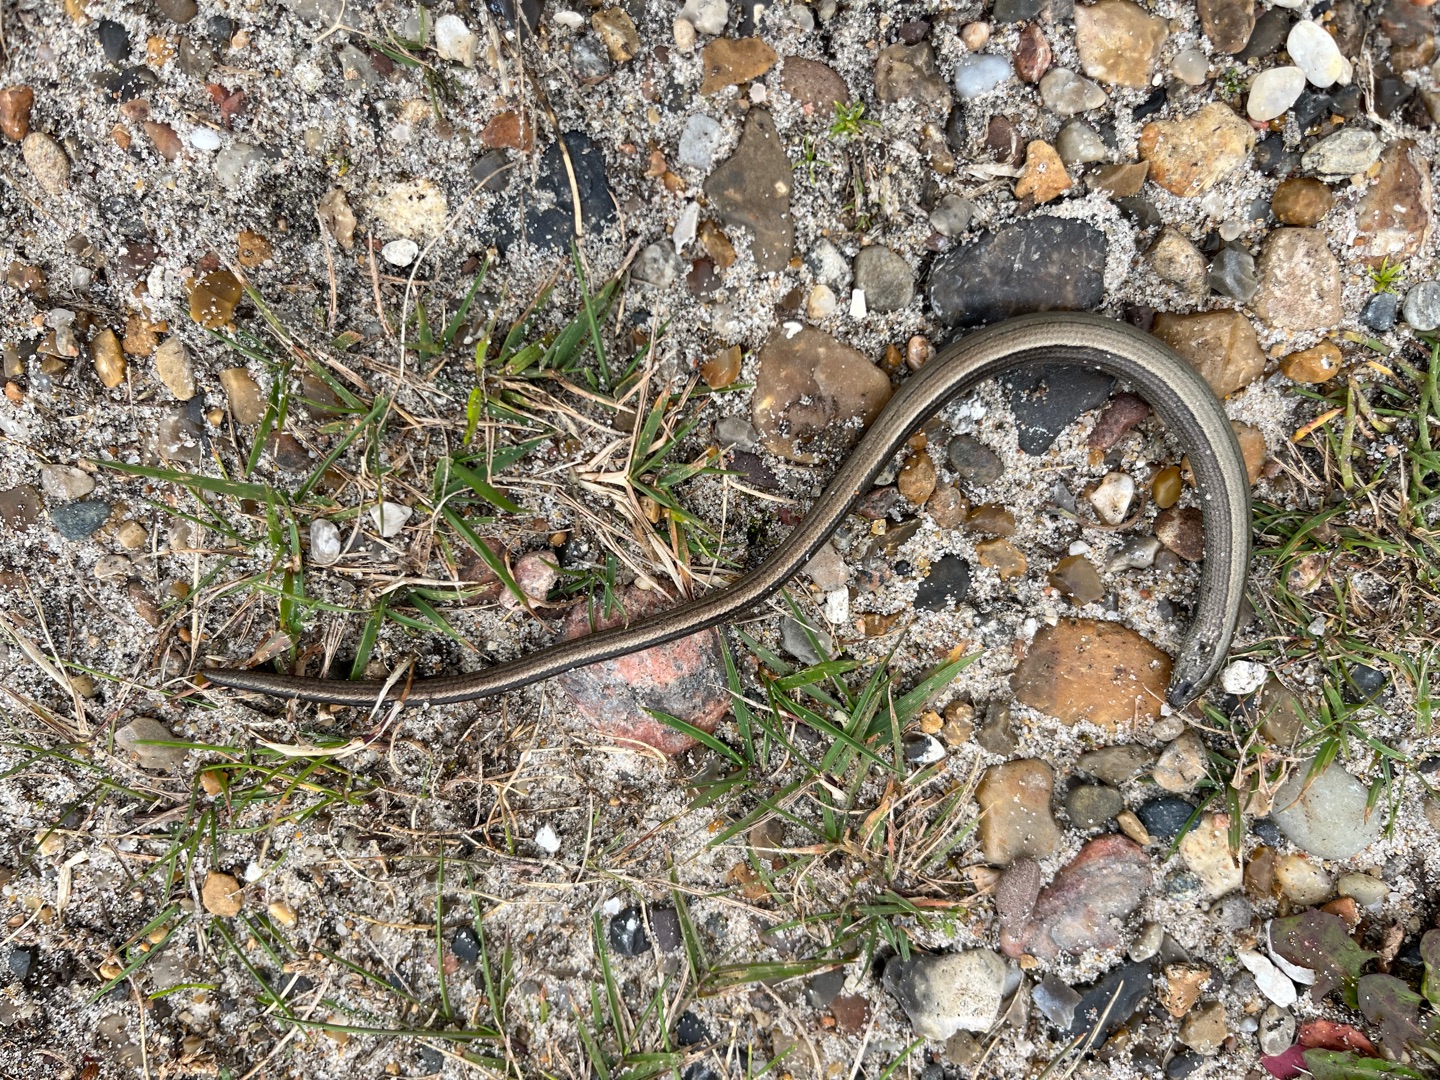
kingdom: Animalia
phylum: Chordata
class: Squamata
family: Anguidae
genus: Anguis
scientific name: Anguis fragilis
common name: Stålorm
